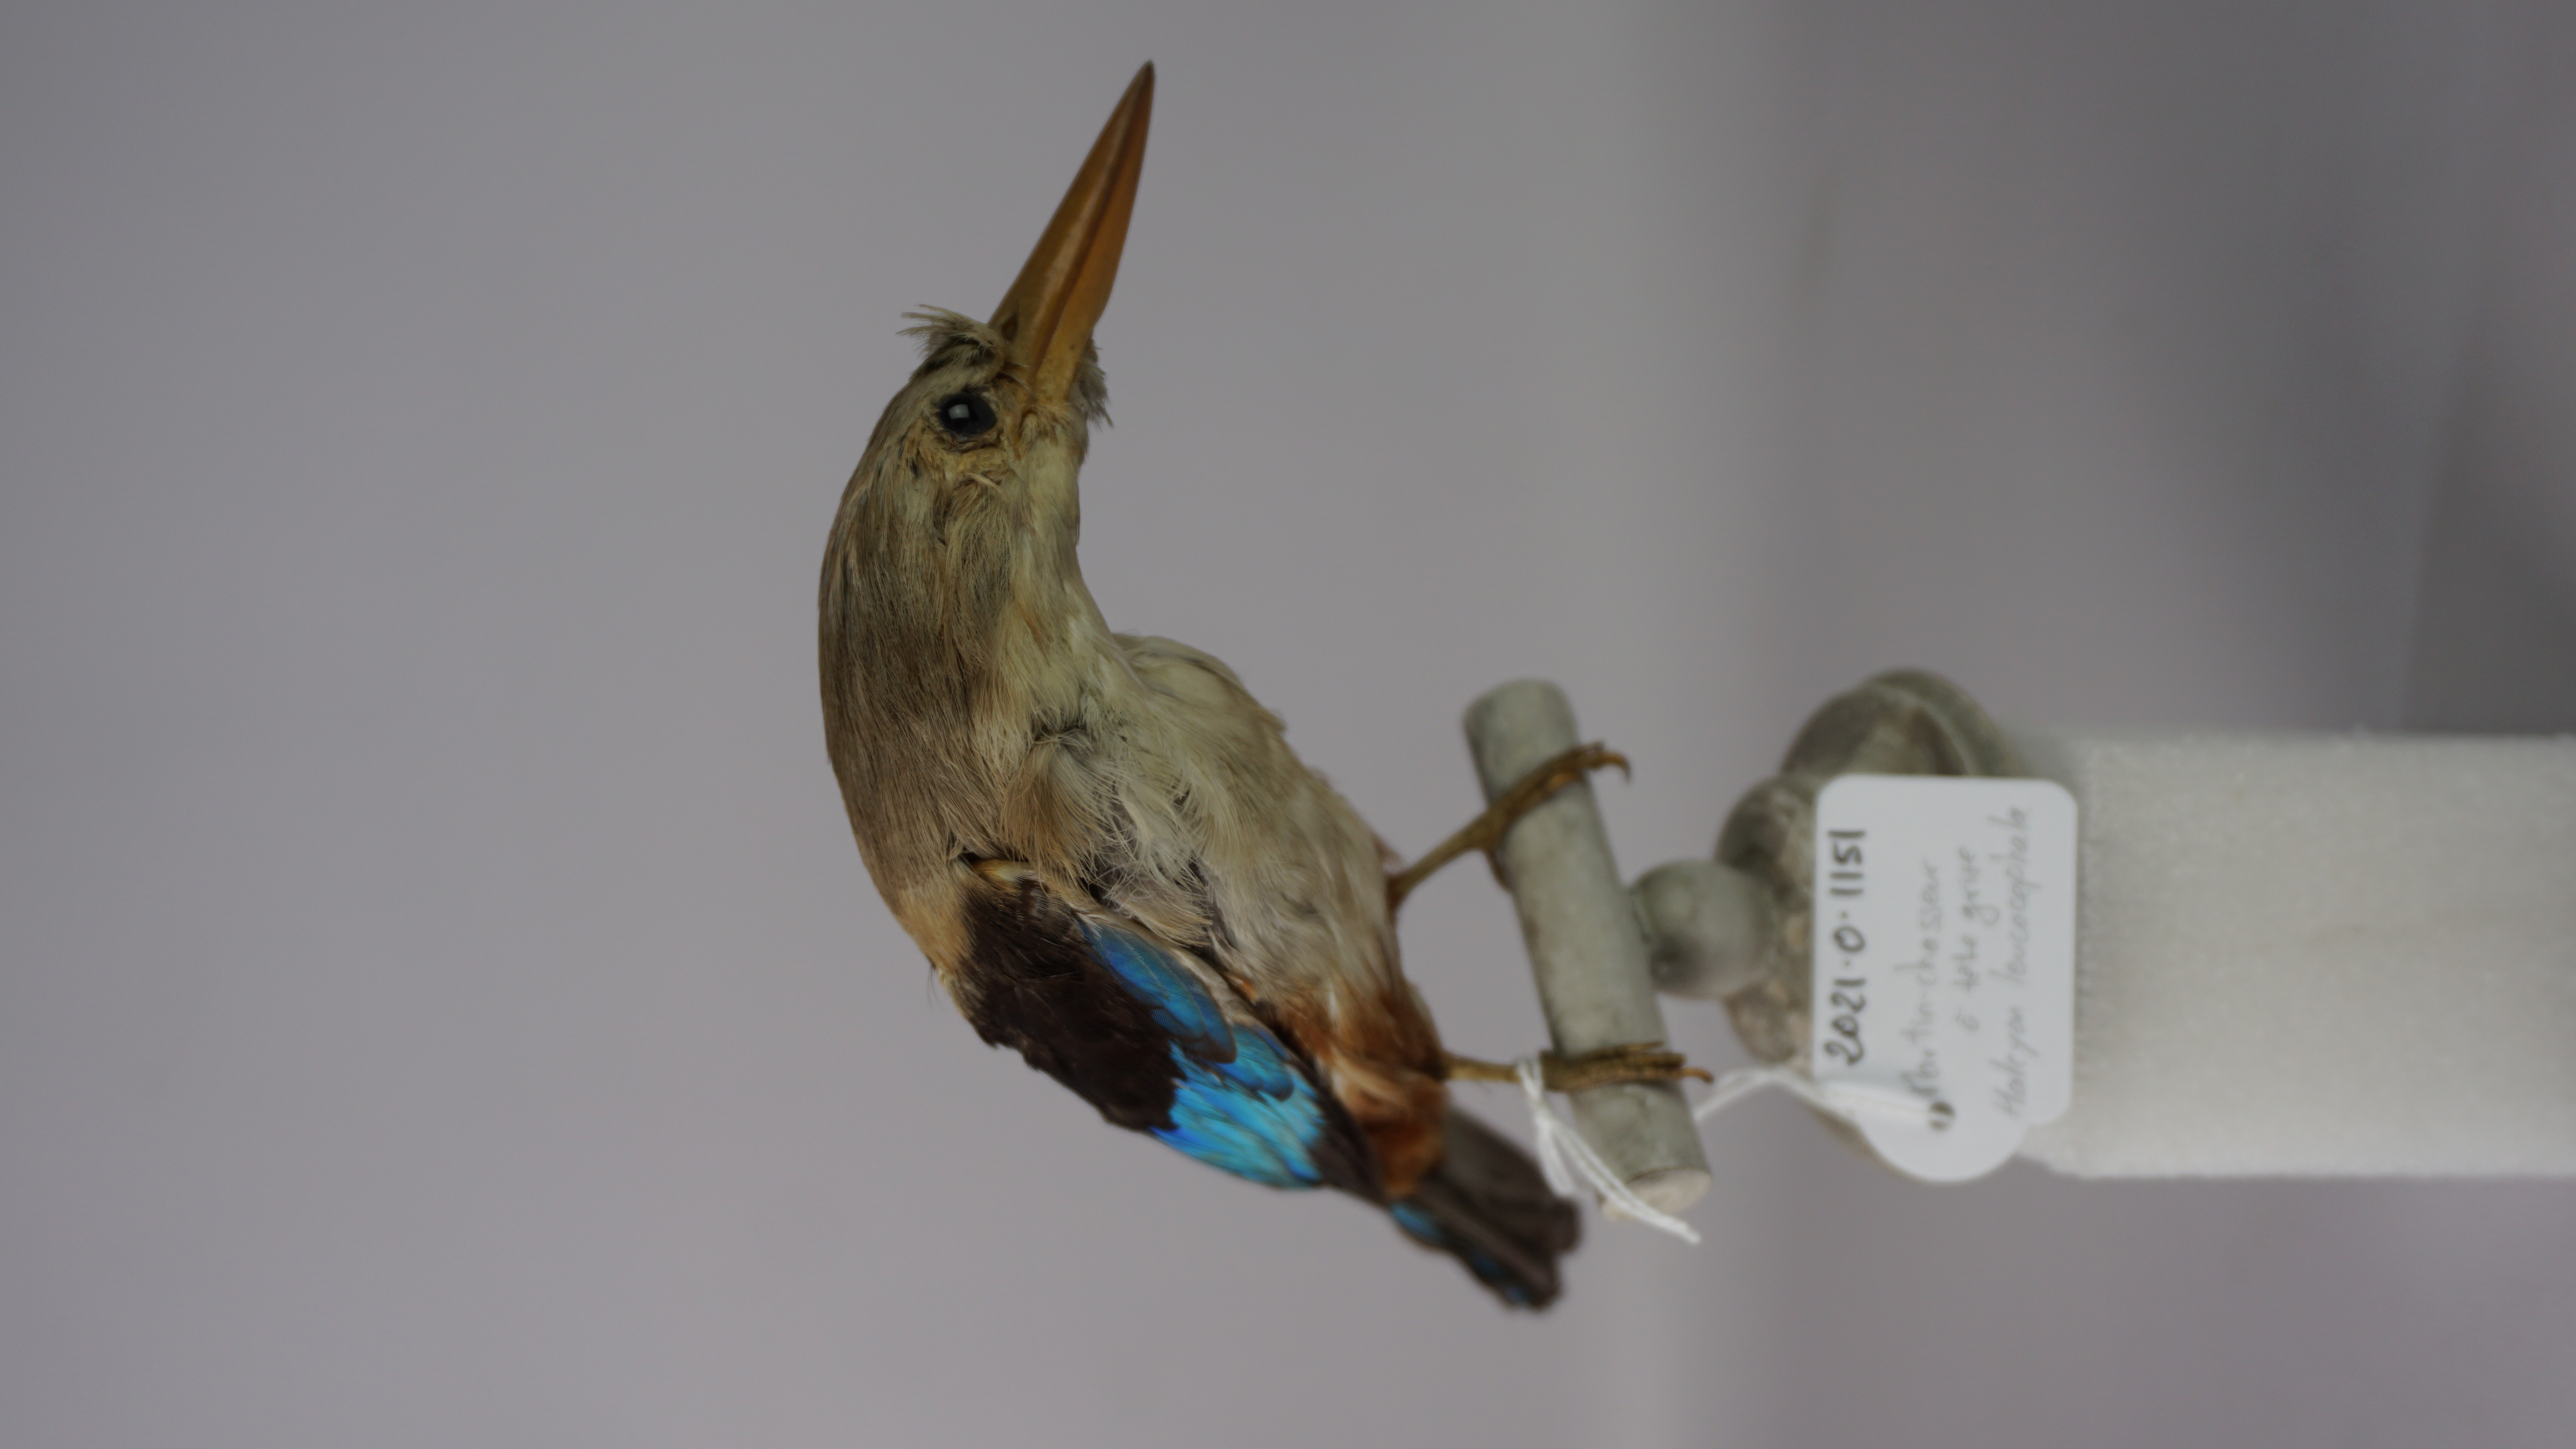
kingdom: Animalia
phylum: Chordata
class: Aves
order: Coraciiformes
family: Alcedinidae
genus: Halcyon
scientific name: Halcyon leucocephala
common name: Grey-headed kingfisher
